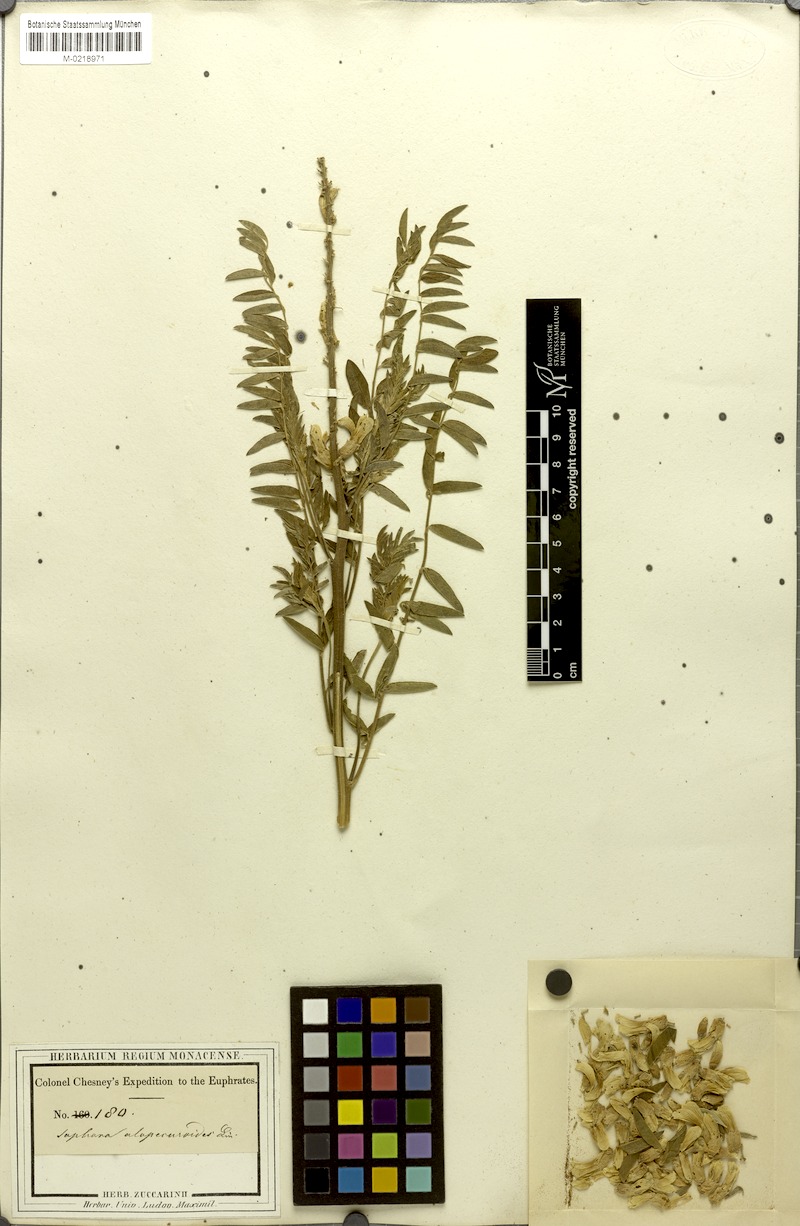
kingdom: Plantae
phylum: Tracheophyta
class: Magnoliopsida
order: Fabales
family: Fabaceae
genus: Sophora
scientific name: Sophora alopecuroides
